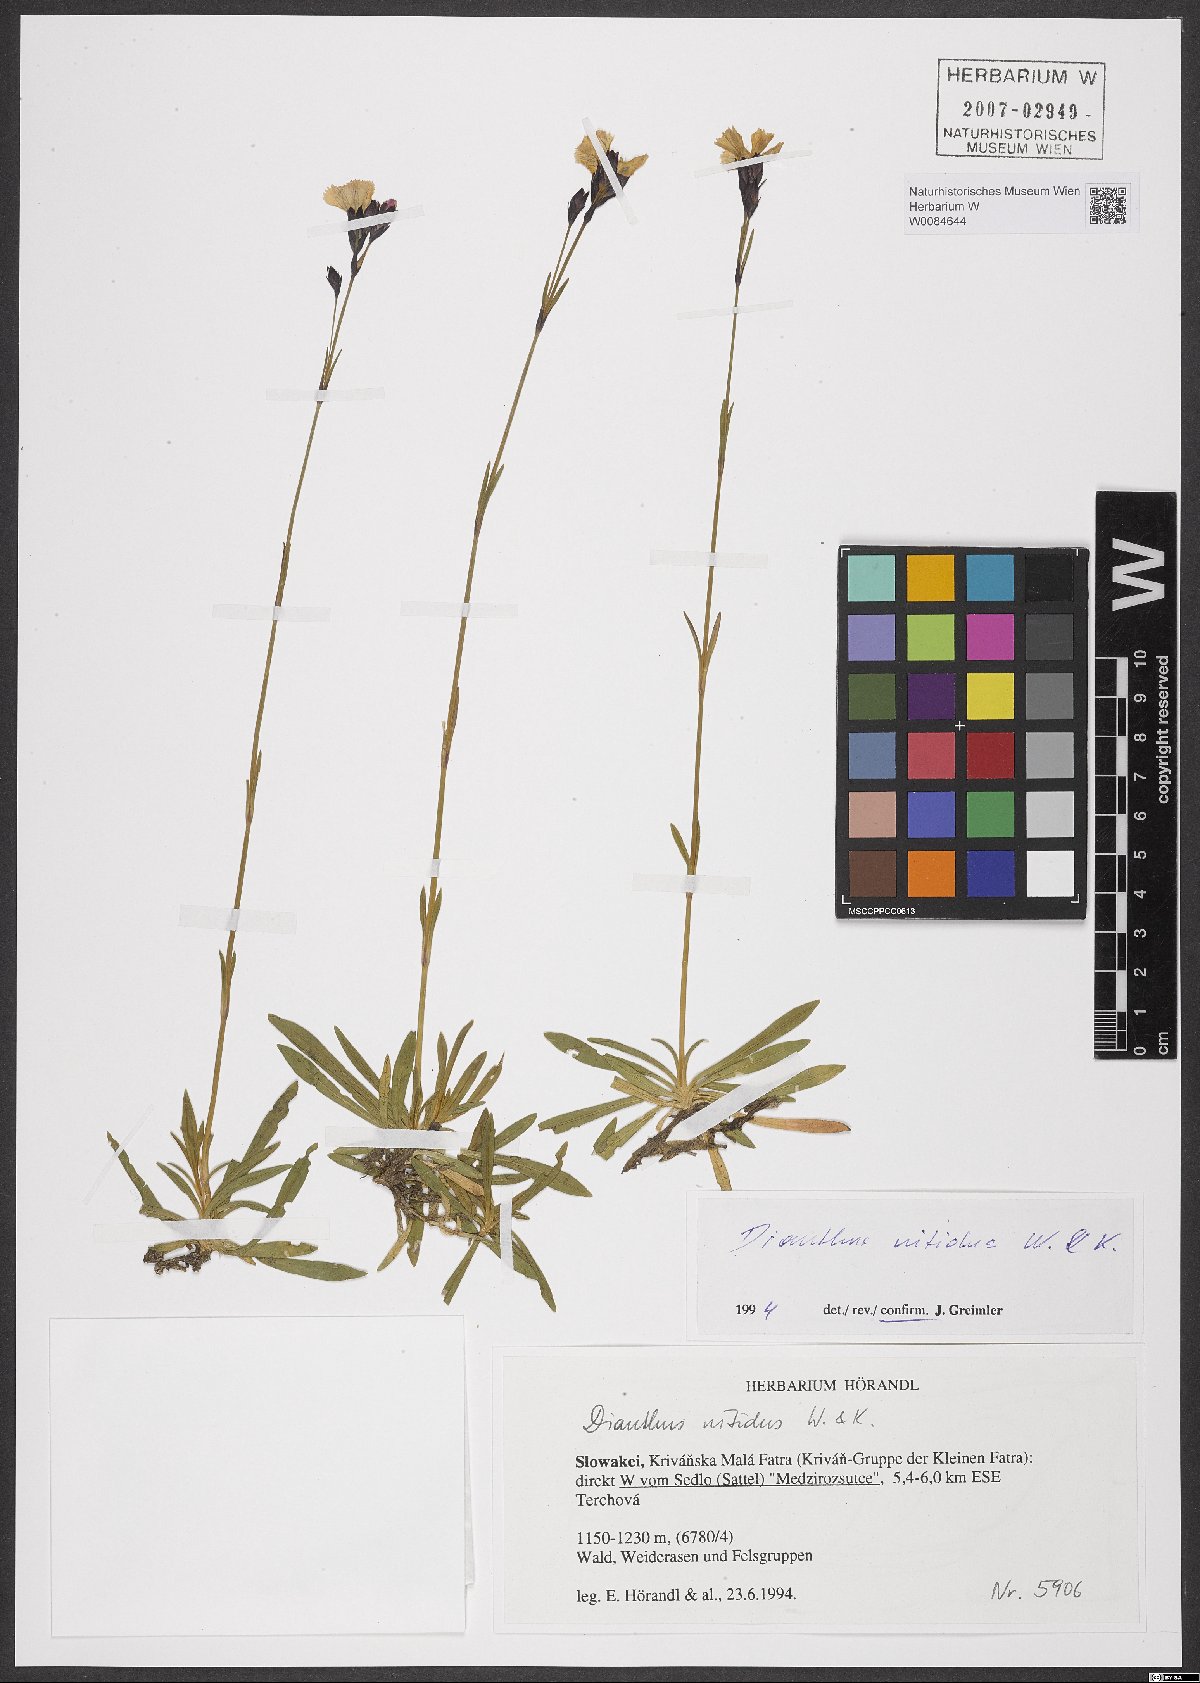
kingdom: Plantae
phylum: Tracheophyta
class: Magnoliopsida
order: Caryophyllales
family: Caryophyllaceae
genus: Dianthus
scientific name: Dianthus nitidus
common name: Carpathian glossy pink
